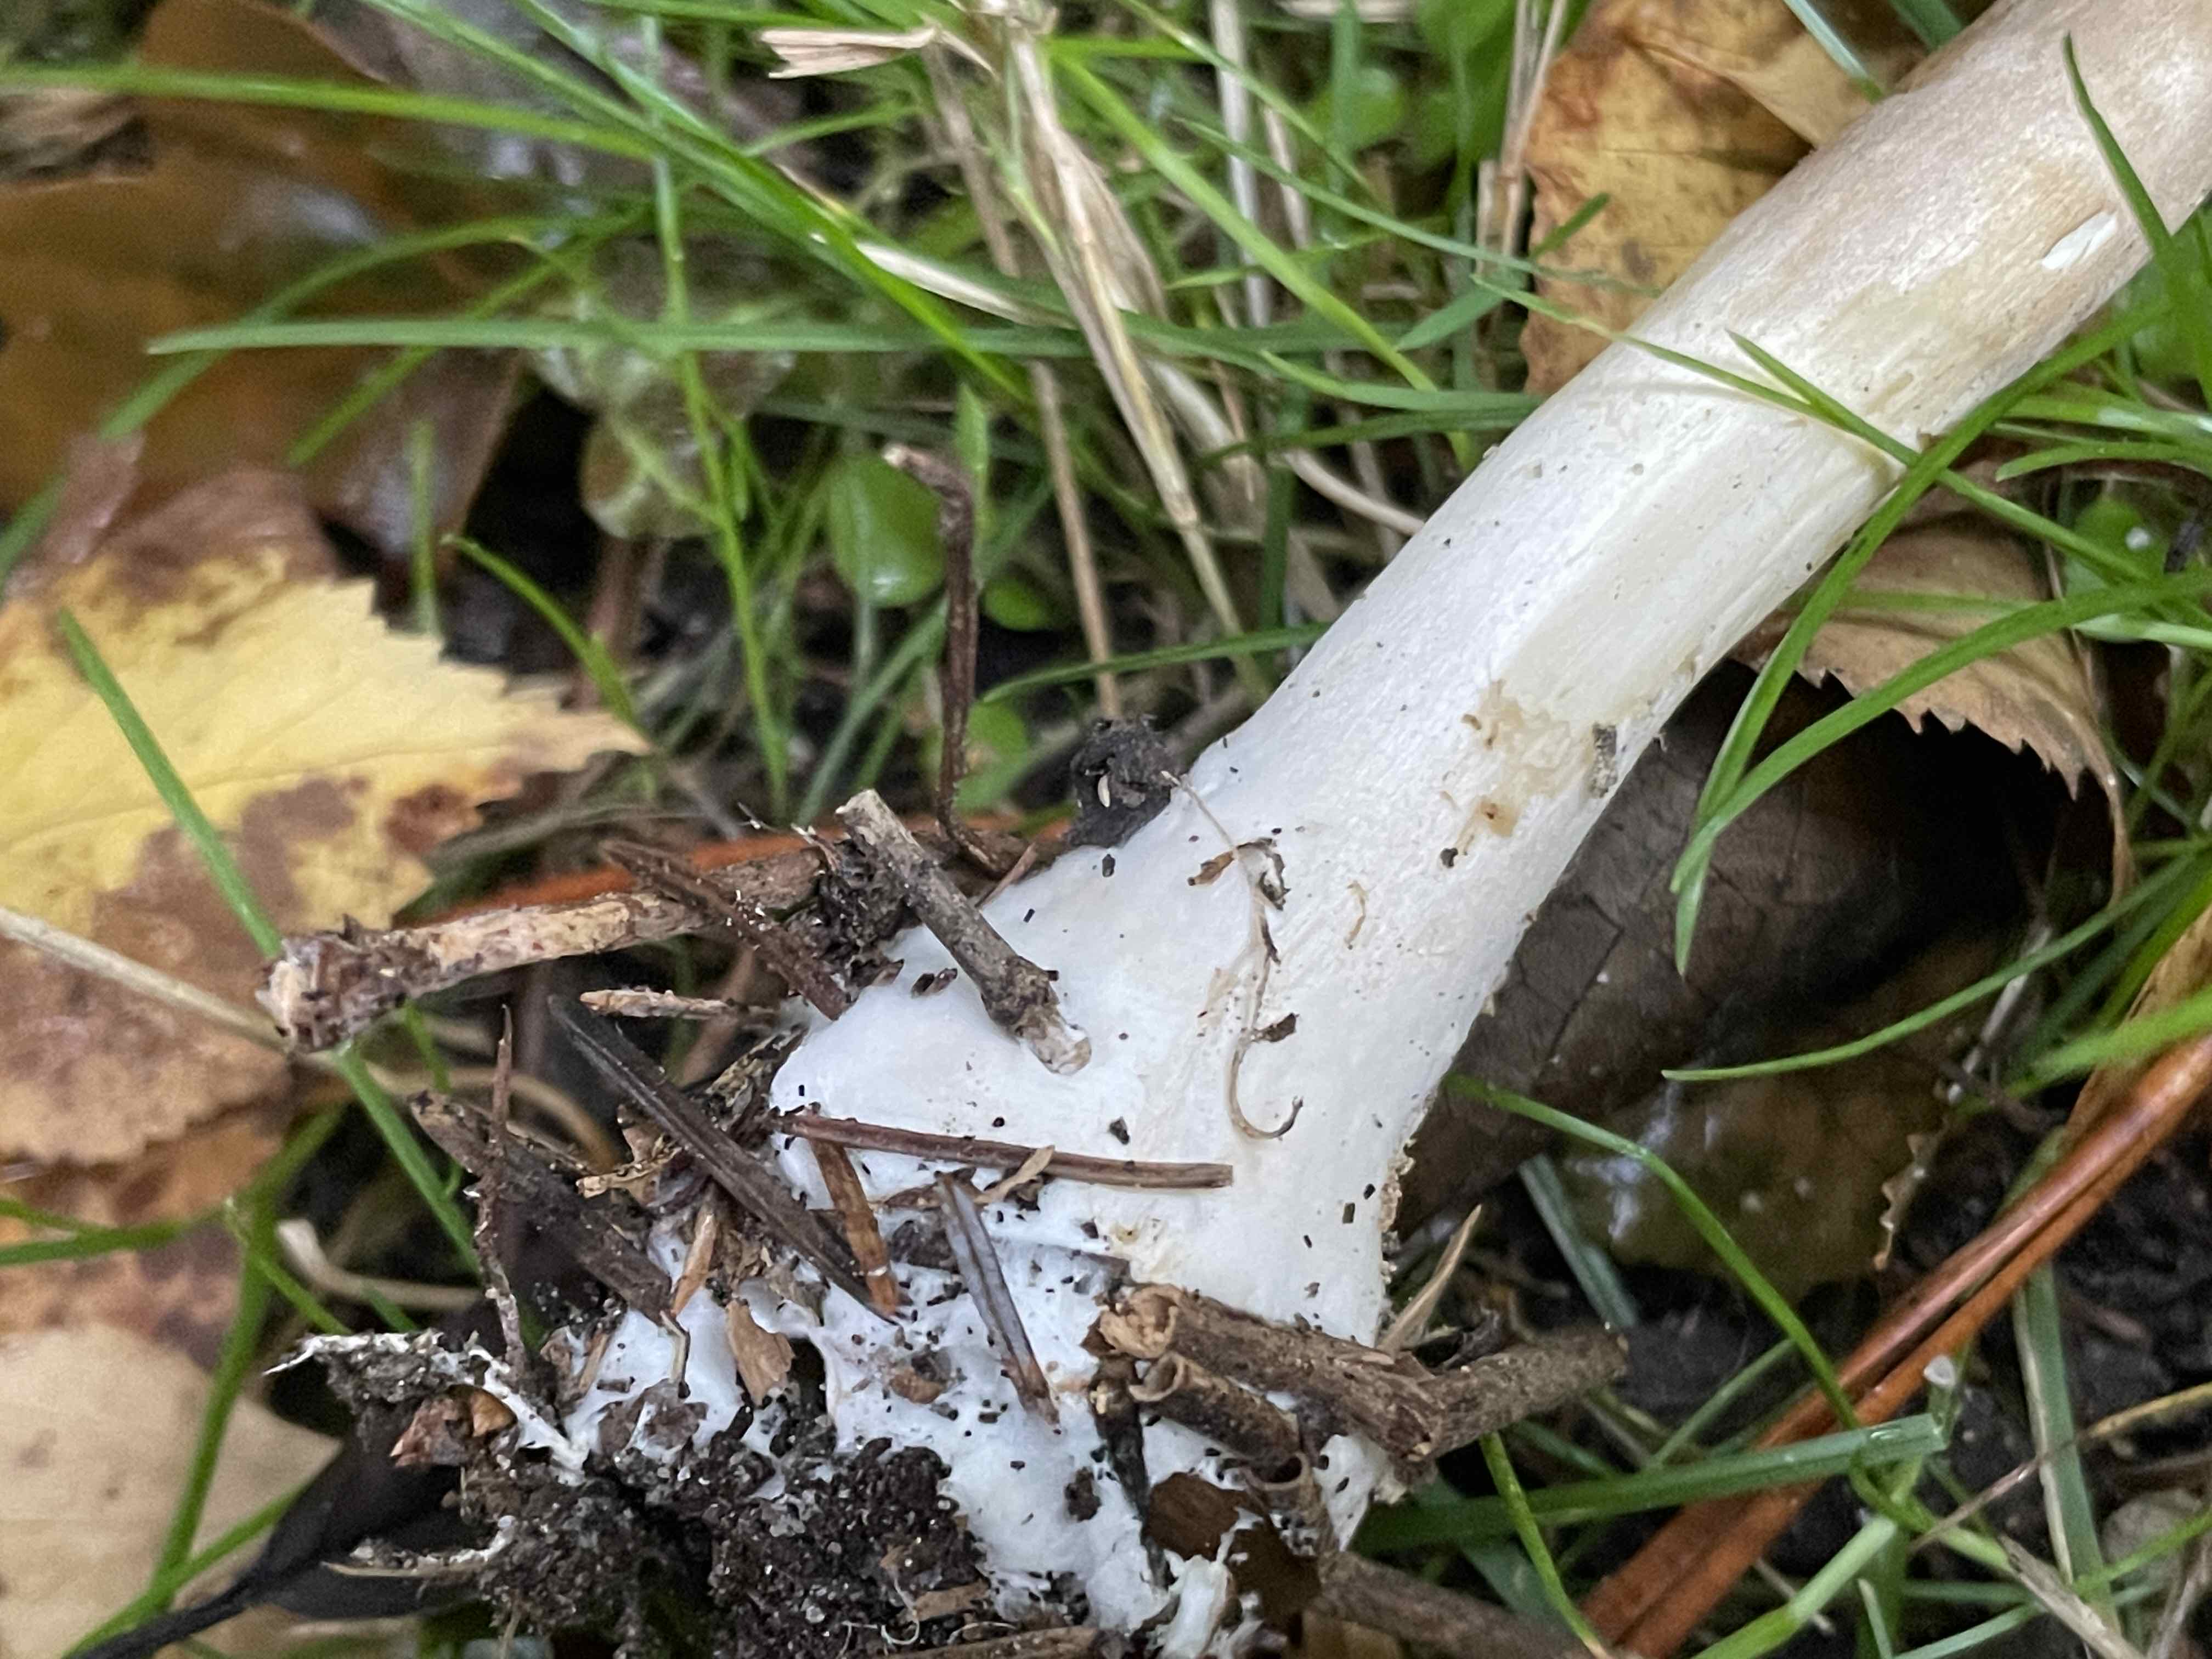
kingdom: Fungi
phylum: Basidiomycota
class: Agaricomycetes
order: Agaricales
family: Agaricaceae
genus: Leucoagaricus
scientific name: Leucoagaricus nympharum
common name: gran-silkehat
